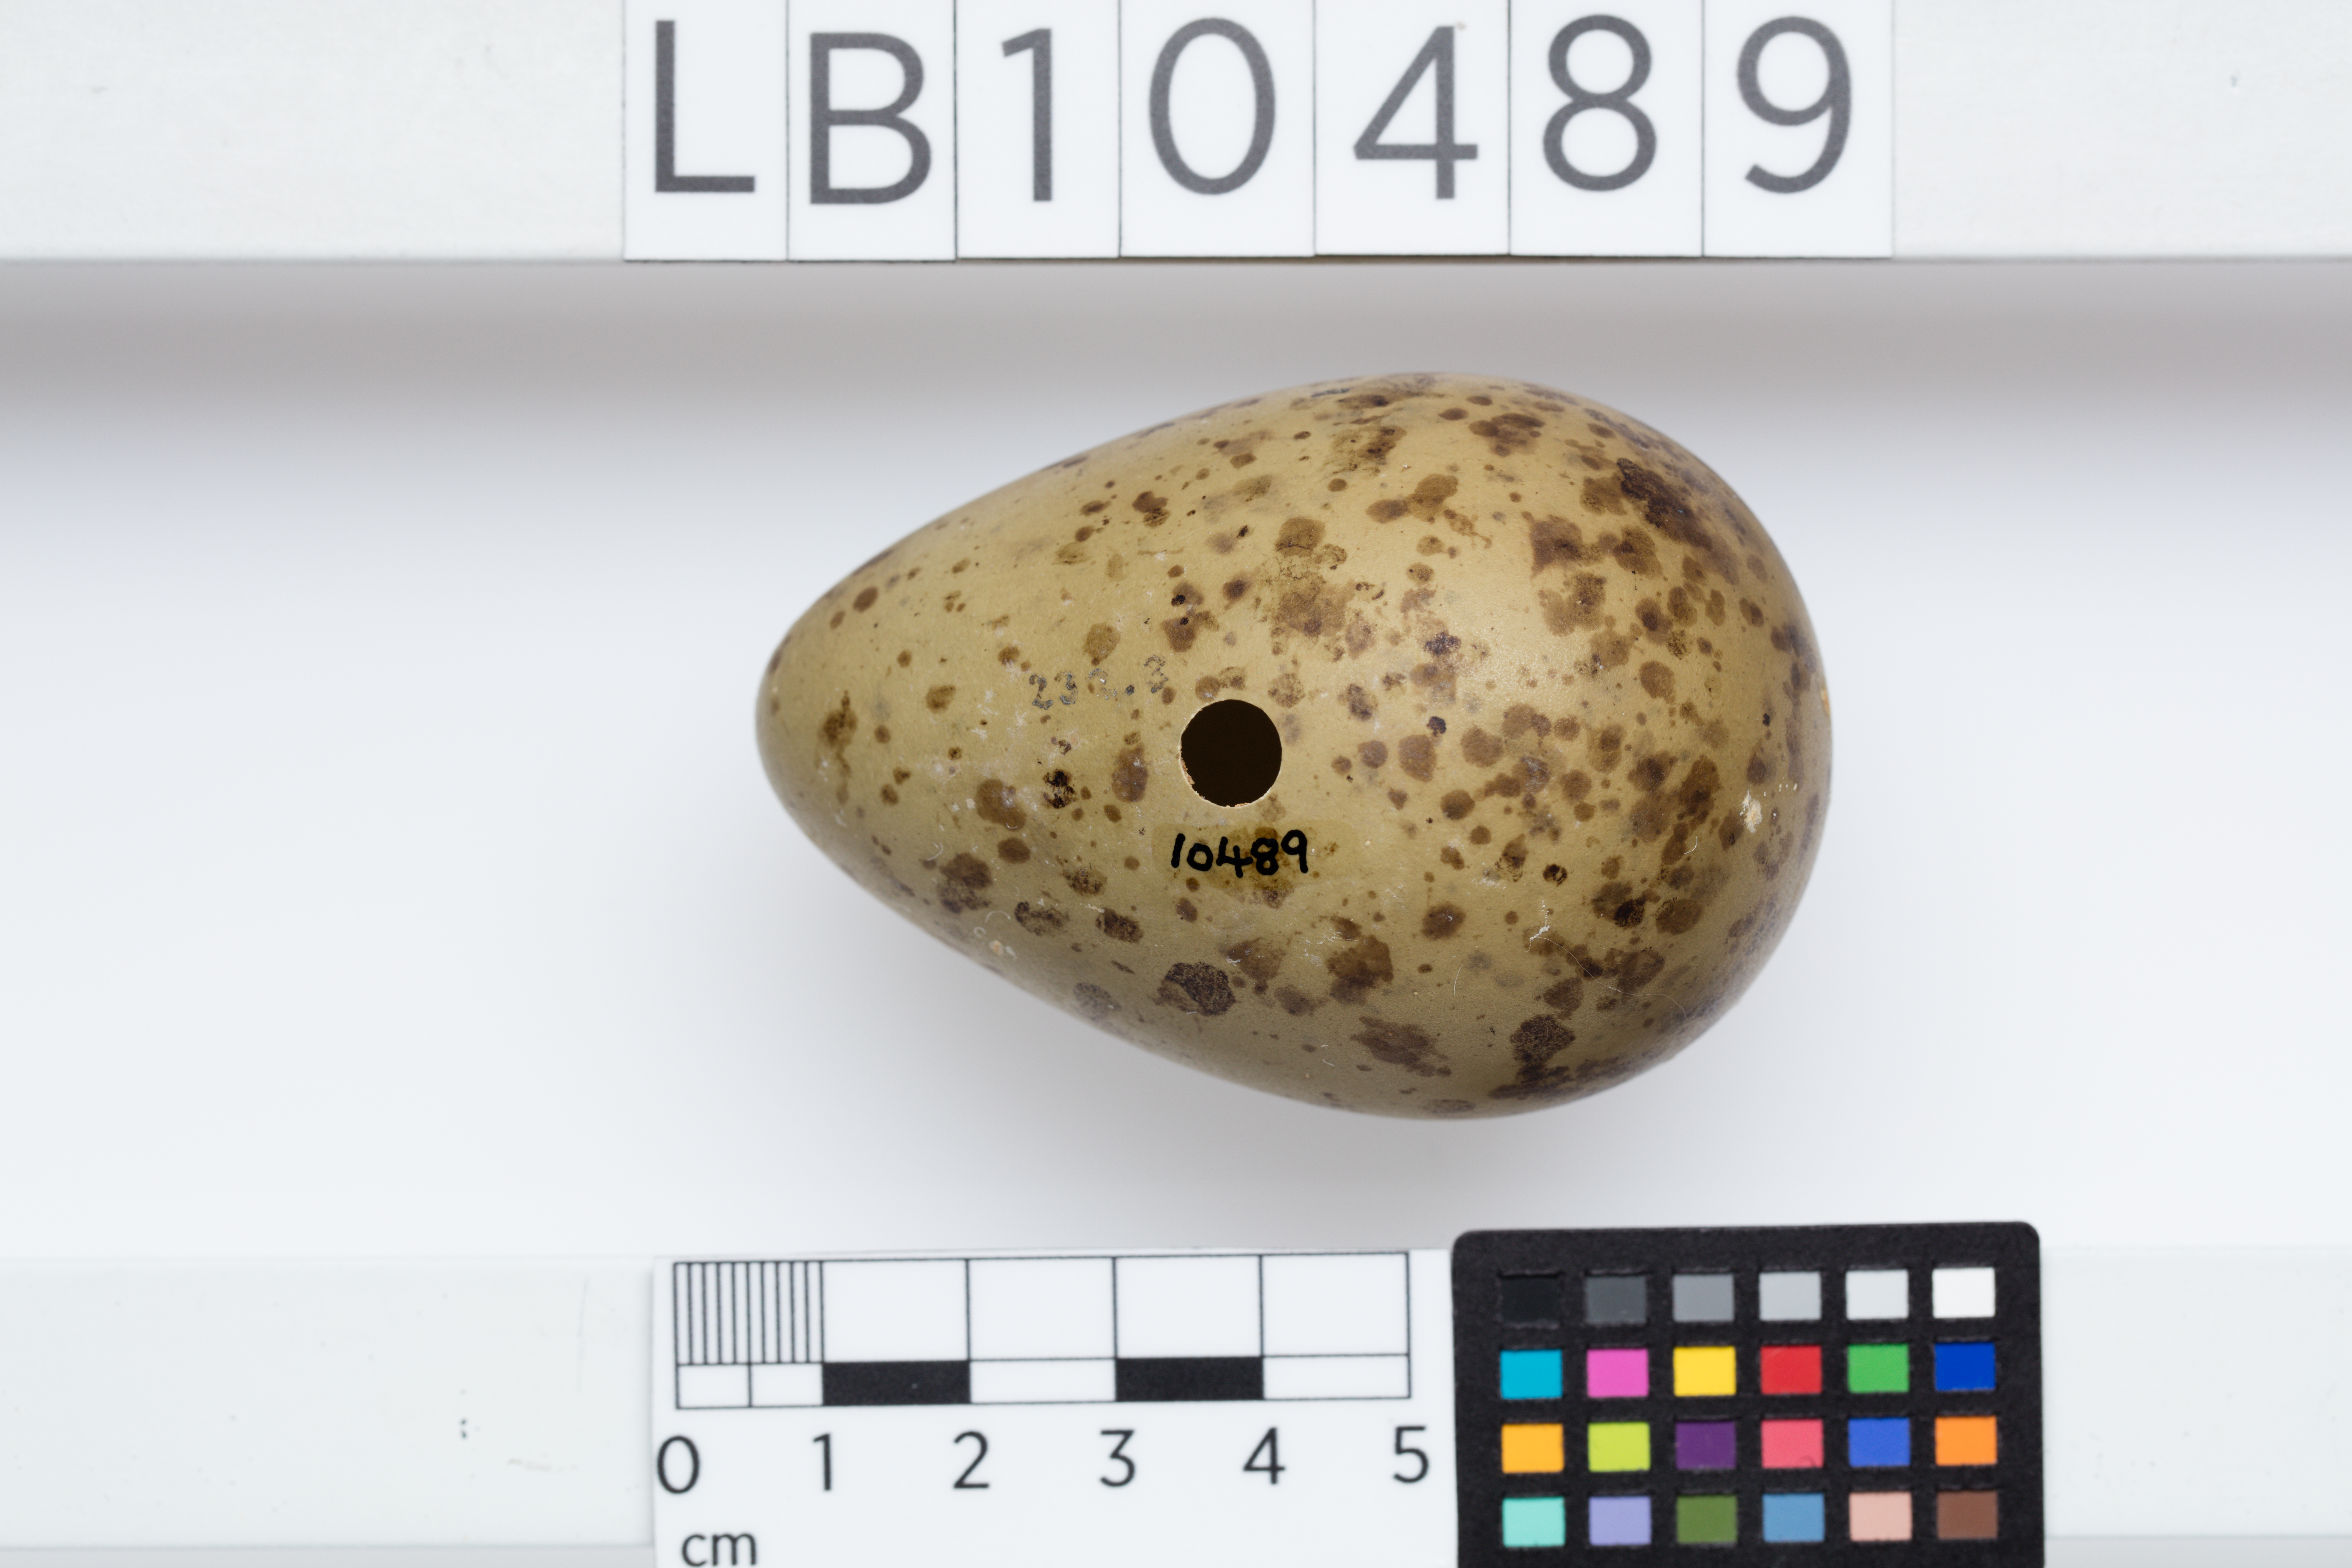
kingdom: Animalia
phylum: Chordata
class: Aves
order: Charadriiformes
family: Scolopacidae
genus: Numenius
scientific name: Numenius arquata
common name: Eurasian curlew
